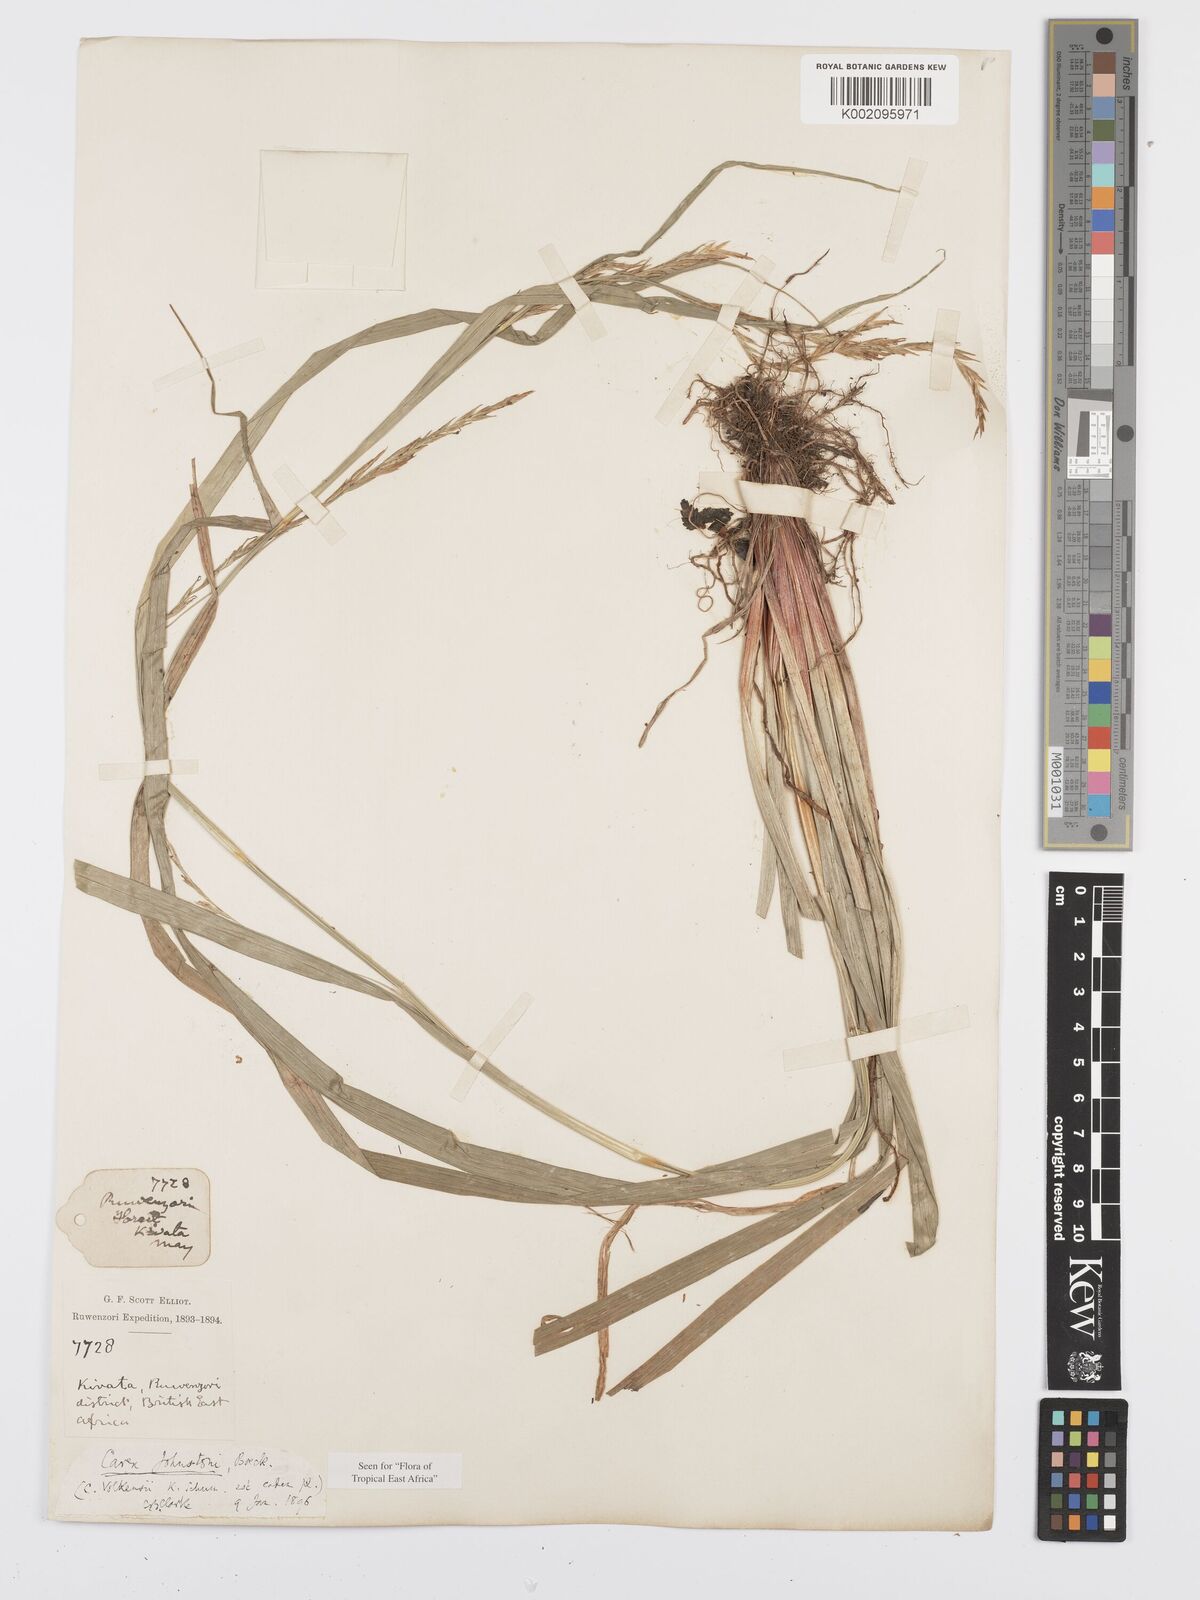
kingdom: Plantae
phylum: Tracheophyta
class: Liliopsida
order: Poales
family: Cyperaceae
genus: Carex
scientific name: Carex johnstonii
